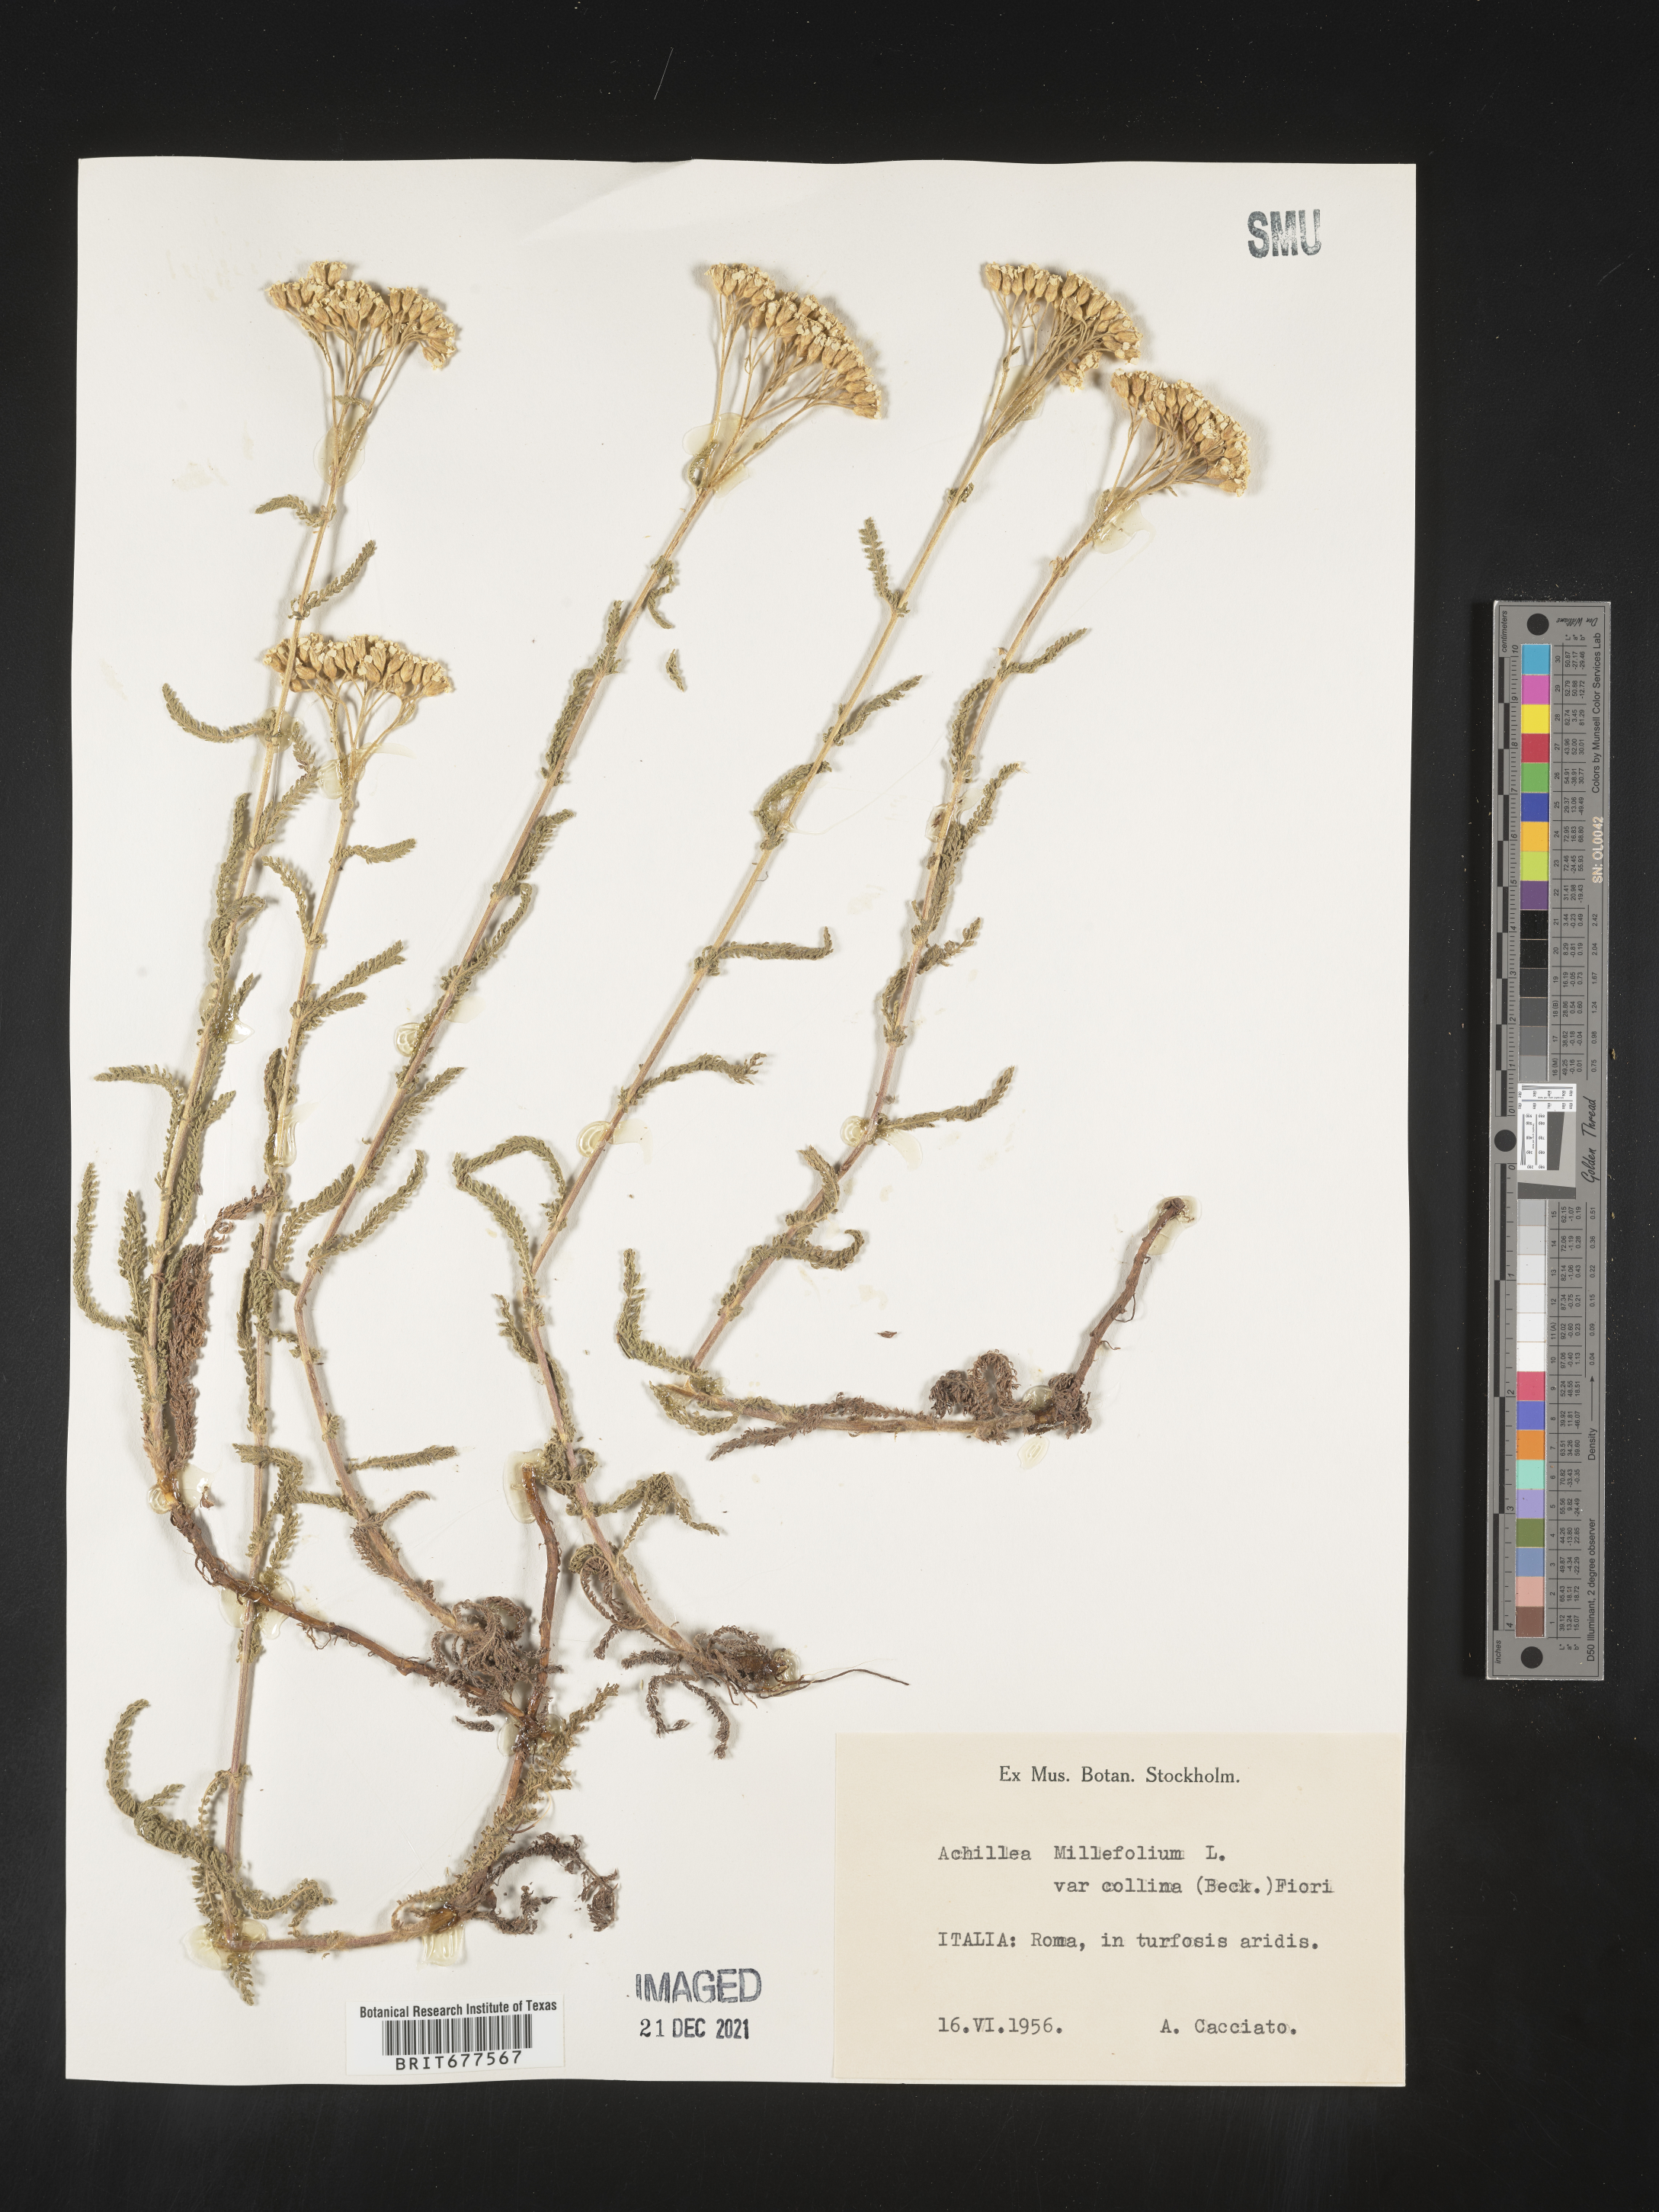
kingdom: Plantae
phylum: Tracheophyta
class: Magnoliopsida
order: Asterales
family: Asteraceae
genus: Achillea
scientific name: Achillea millefolium
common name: Yarrow
